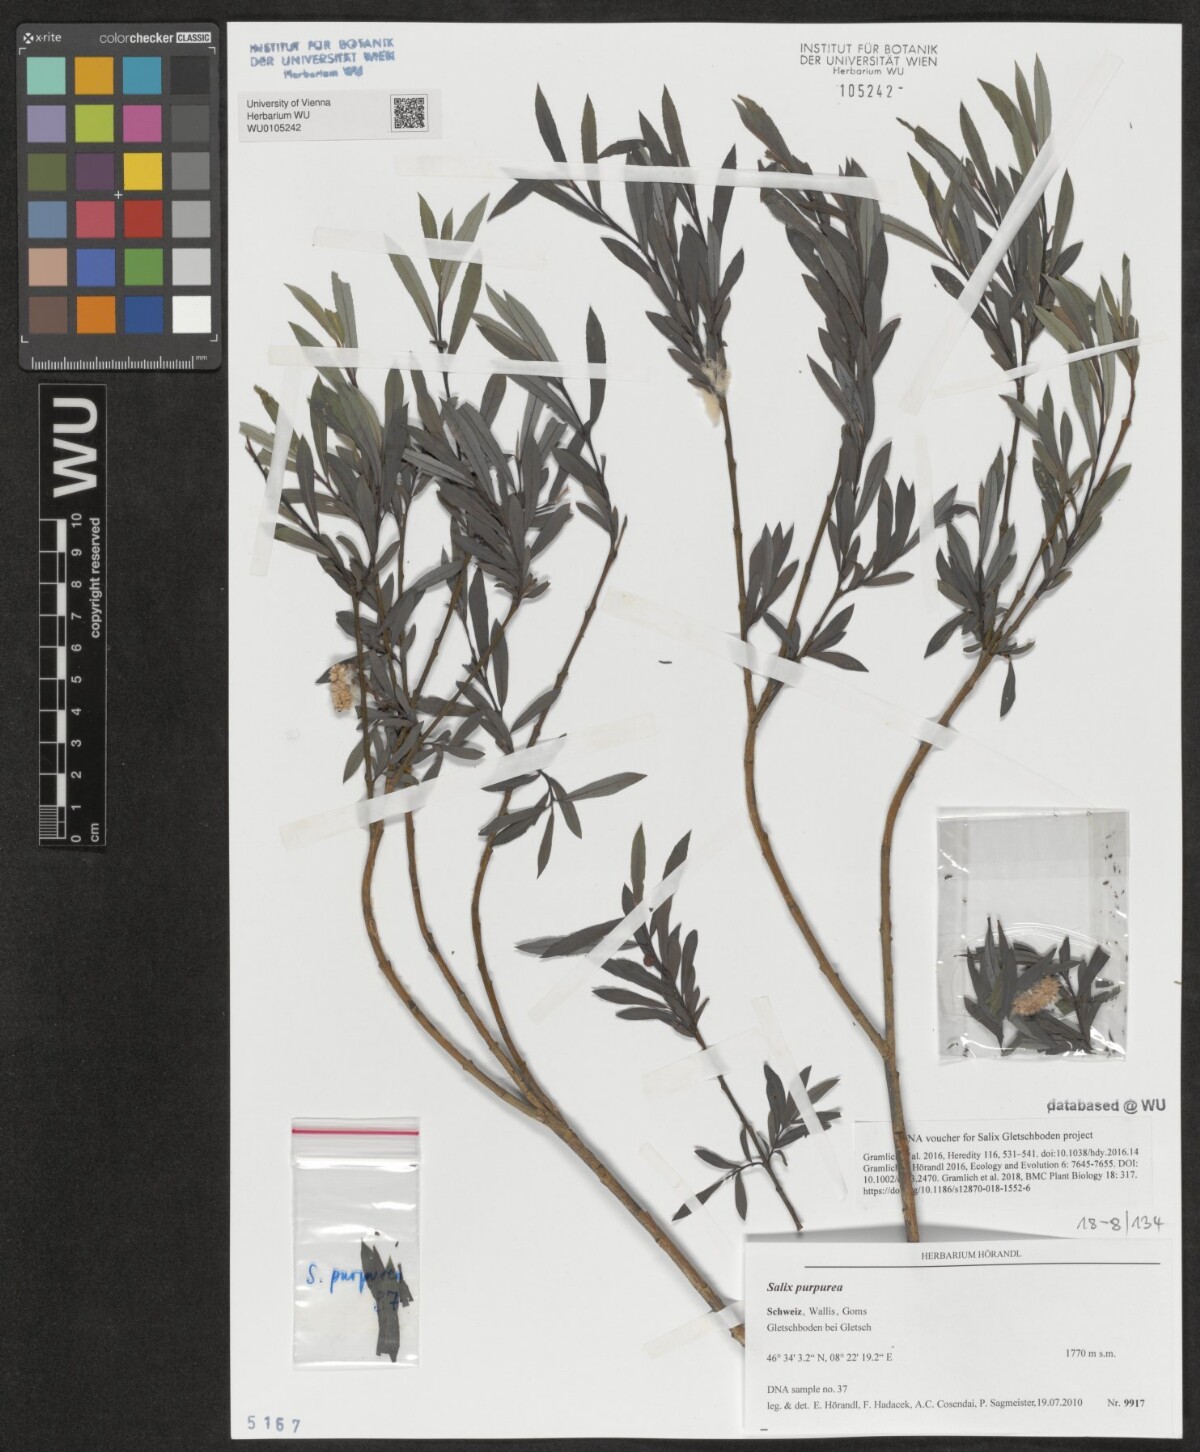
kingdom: Plantae
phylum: Tracheophyta
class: Magnoliopsida
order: Malpighiales
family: Salicaceae
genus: Salix
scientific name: Salix purpurea
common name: Purple willow
